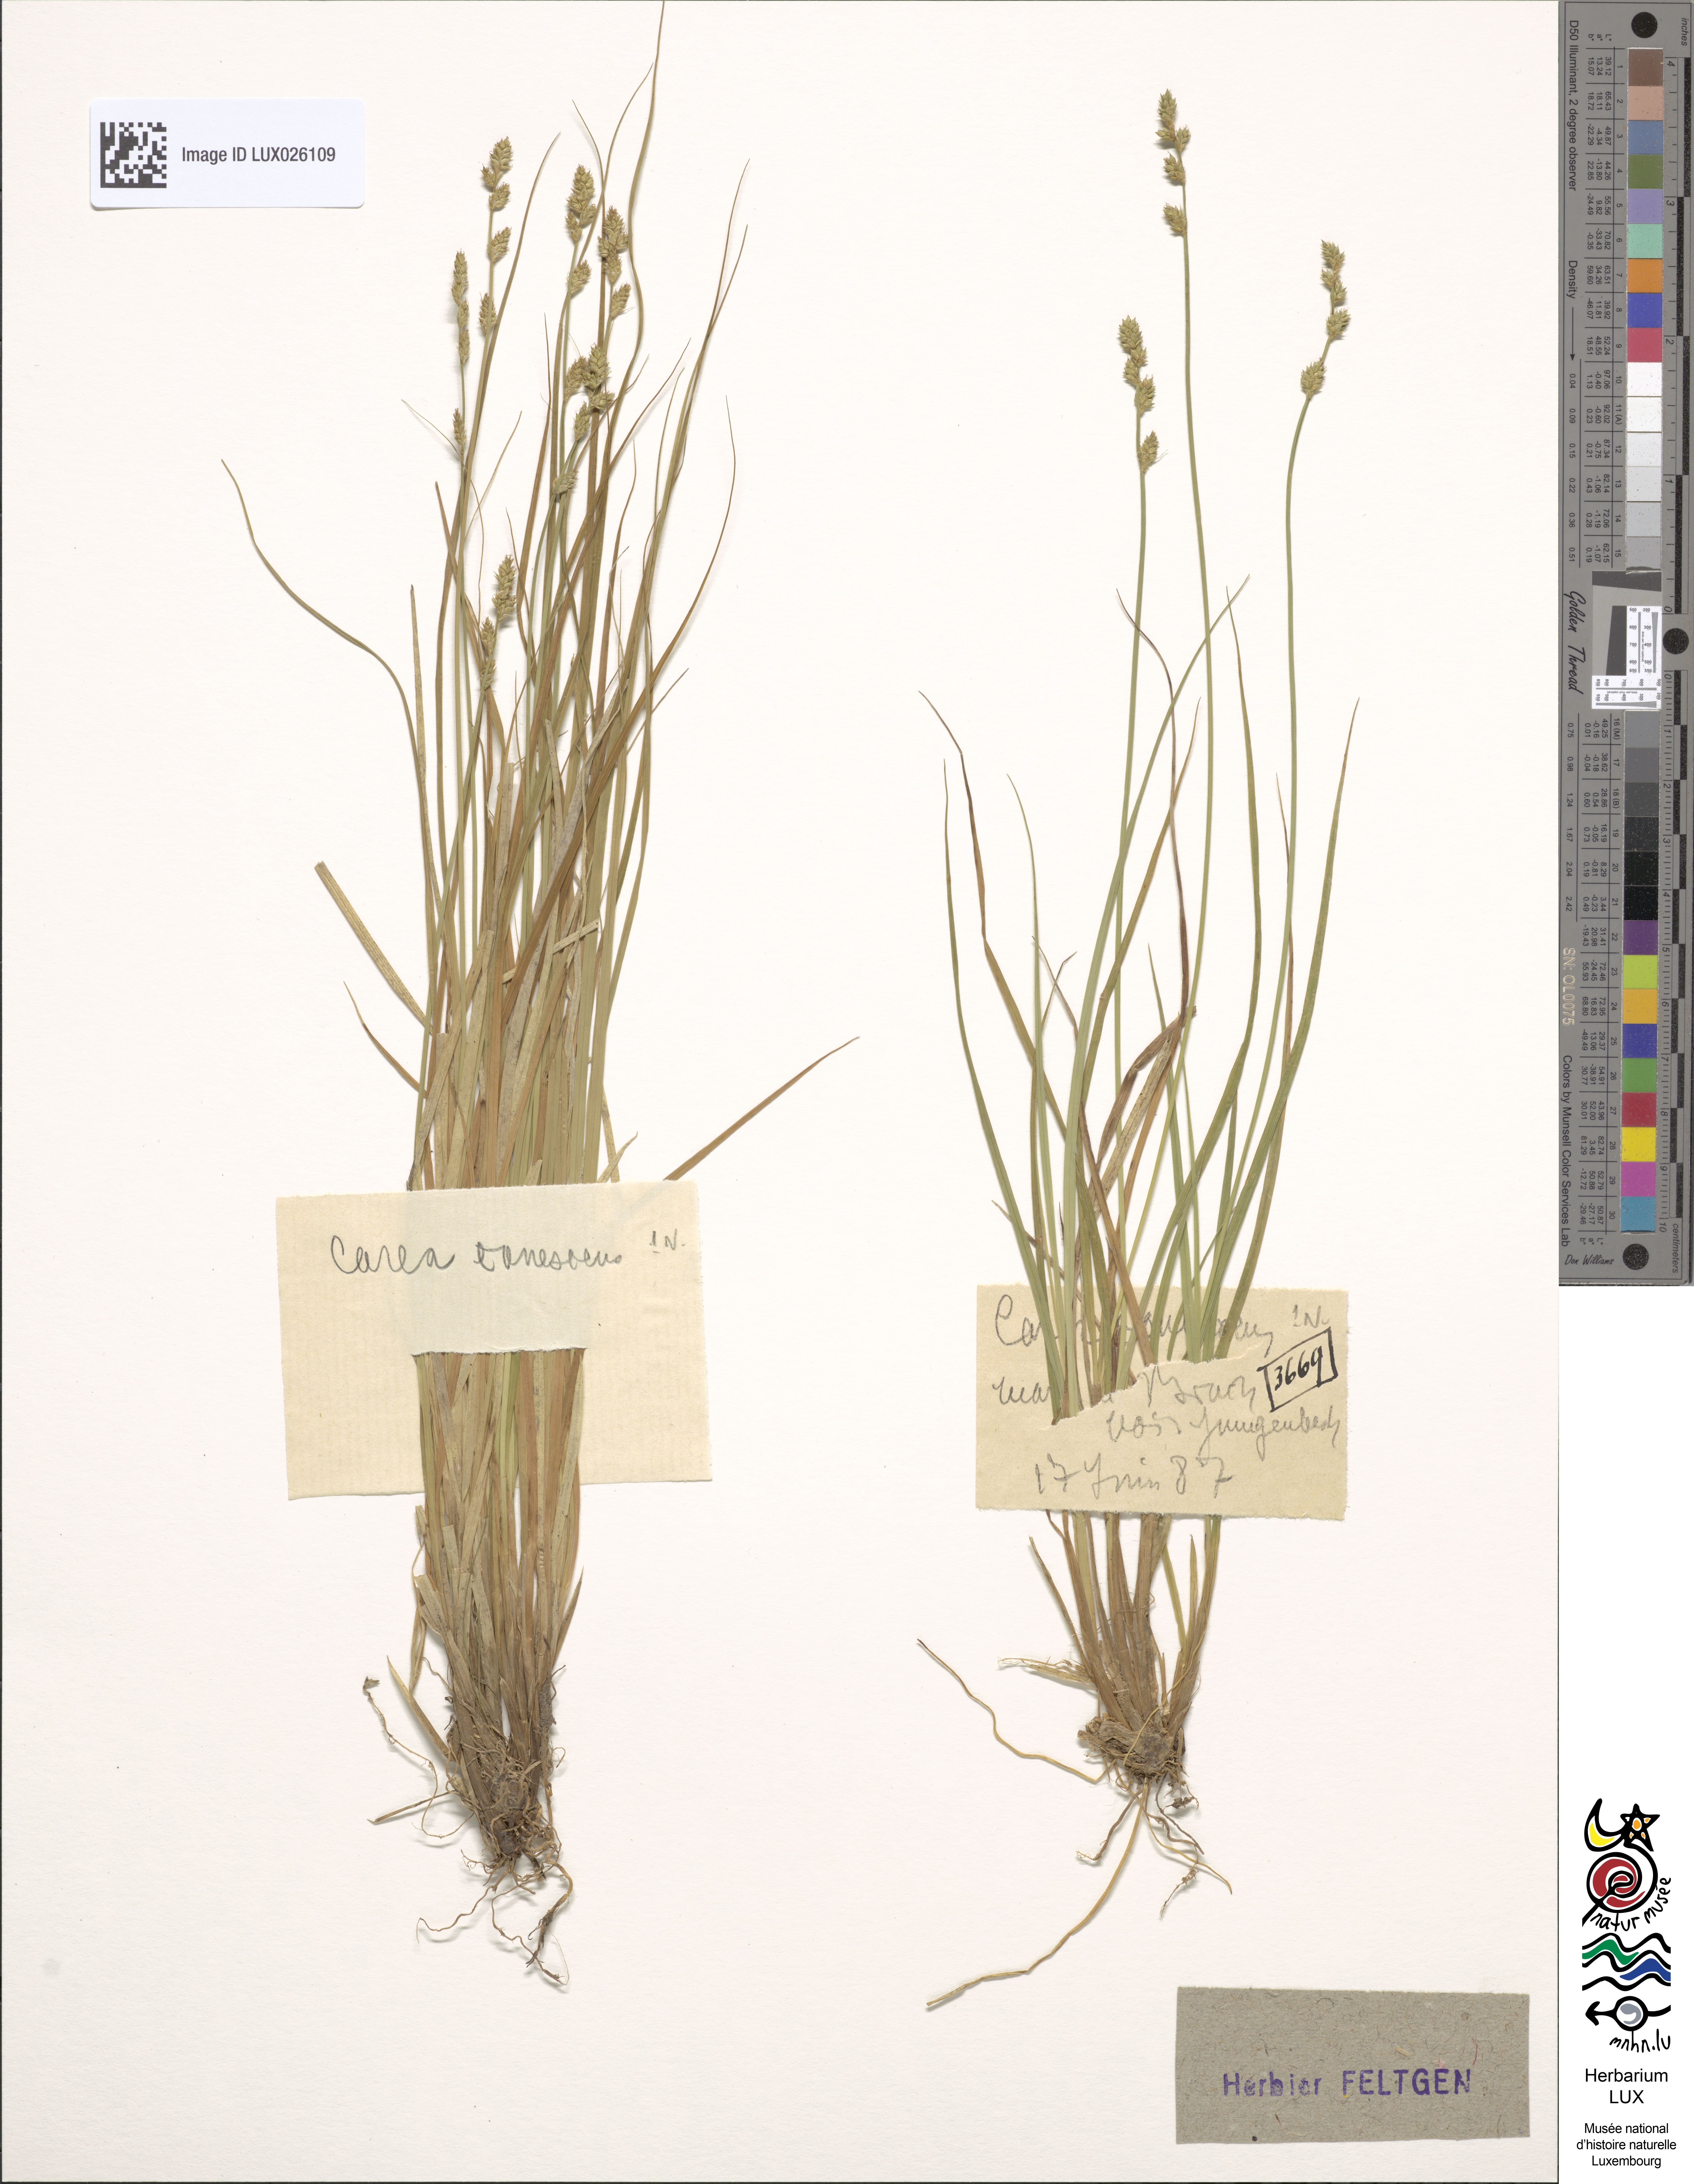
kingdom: Plantae
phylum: Tracheophyta
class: Liliopsida
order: Poales
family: Cyperaceae
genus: Carex
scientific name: Carex canescens
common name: White sedge
